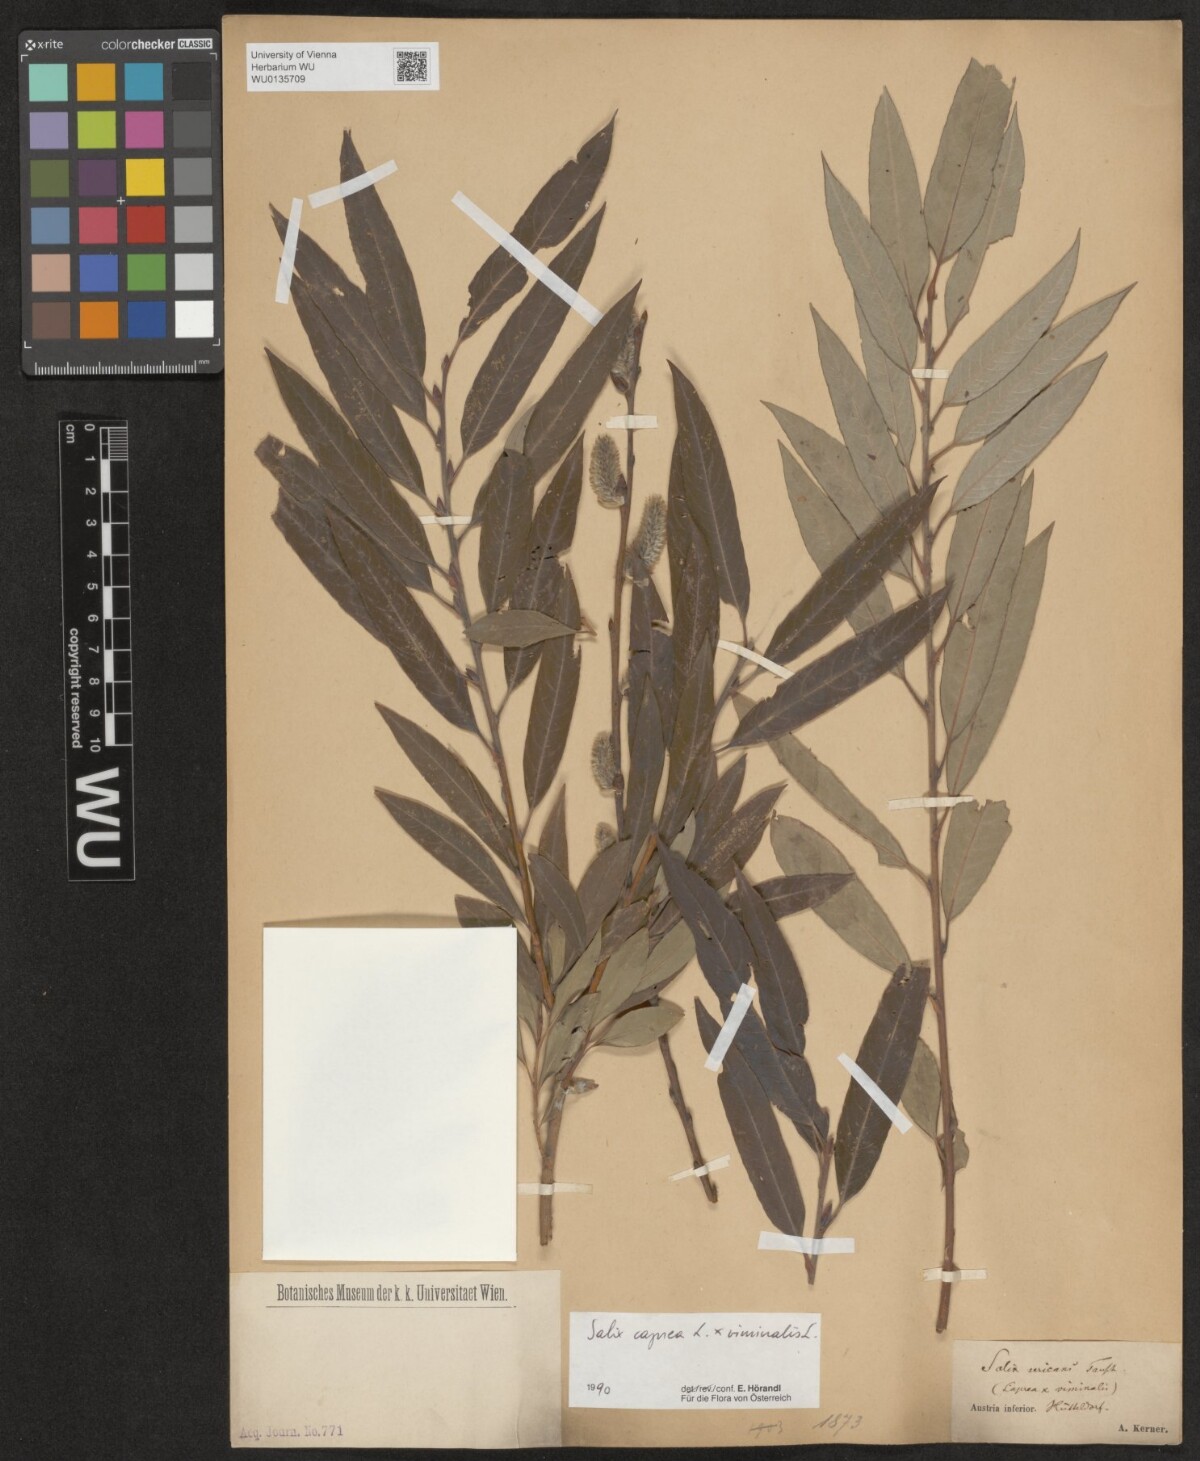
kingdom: Plantae
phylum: Tracheophyta
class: Magnoliopsida
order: Malpighiales
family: Salicaceae
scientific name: Salicaceae
